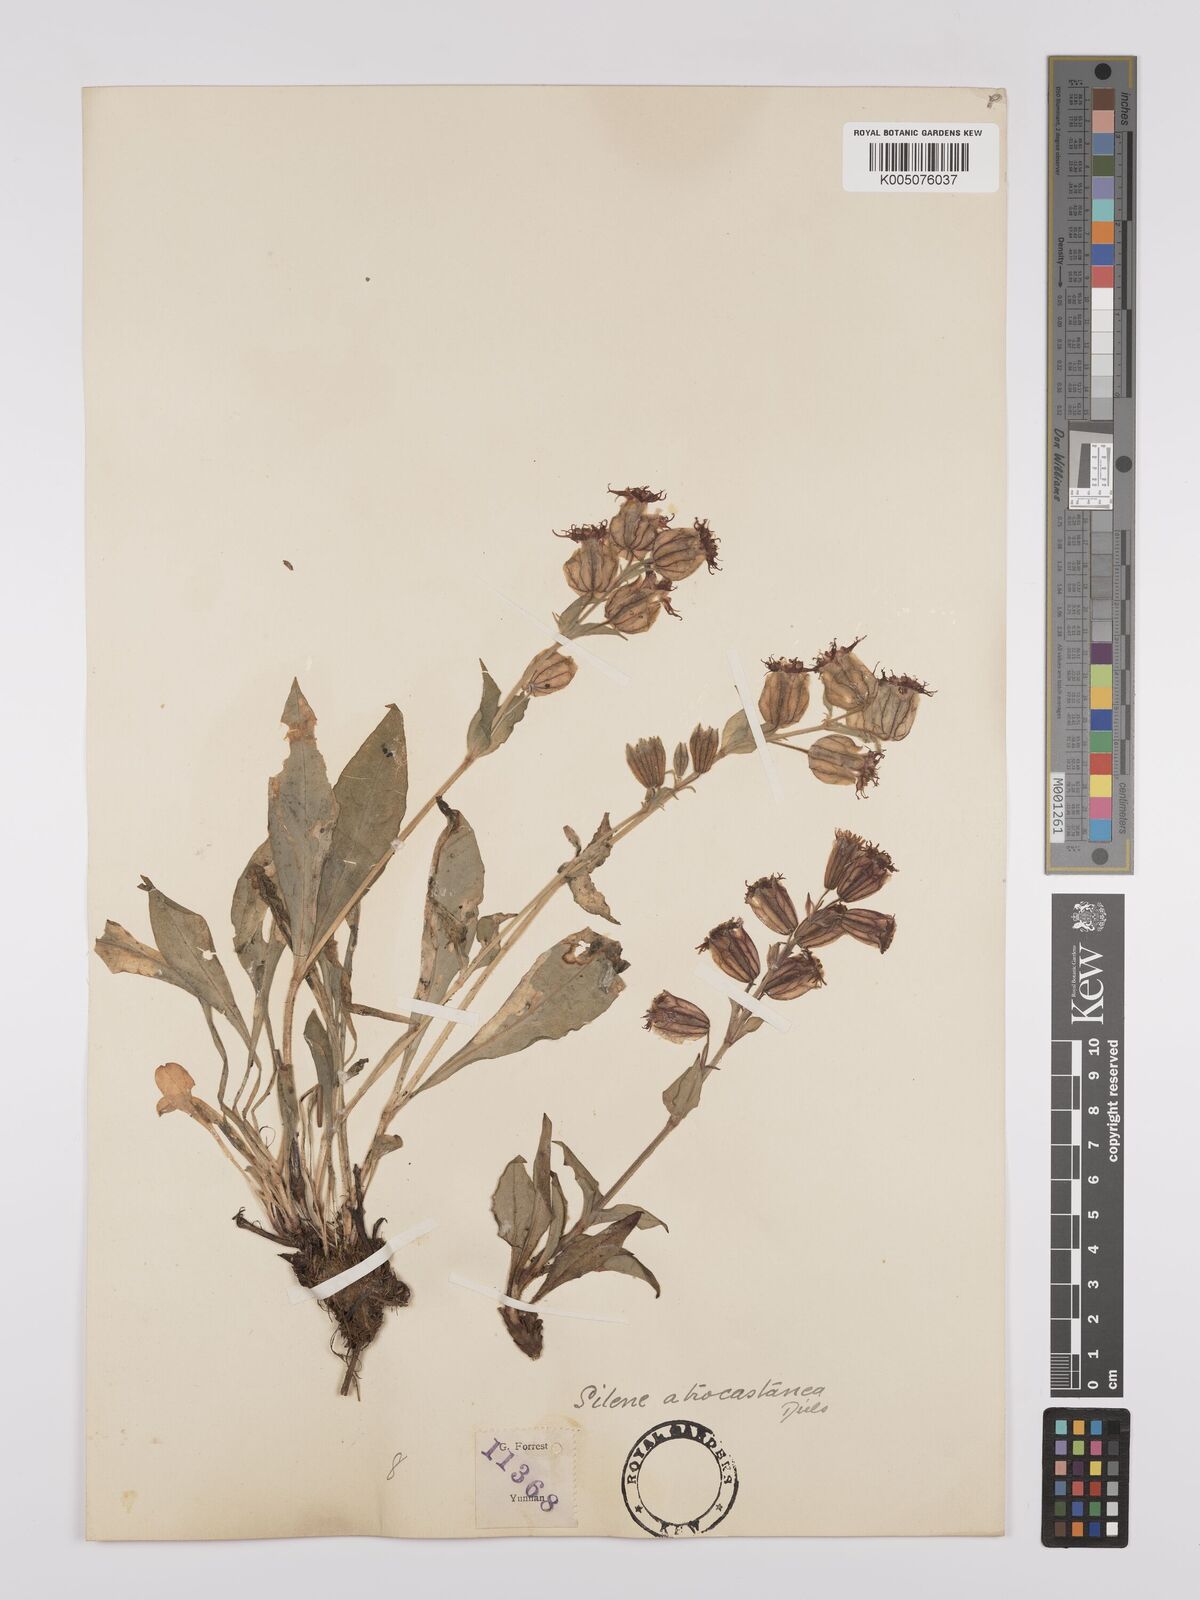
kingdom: Plantae
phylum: Tracheophyta
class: Magnoliopsida
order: Caryophyllales
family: Caryophyllaceae
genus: Silene
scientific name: Silene atrocastanea
